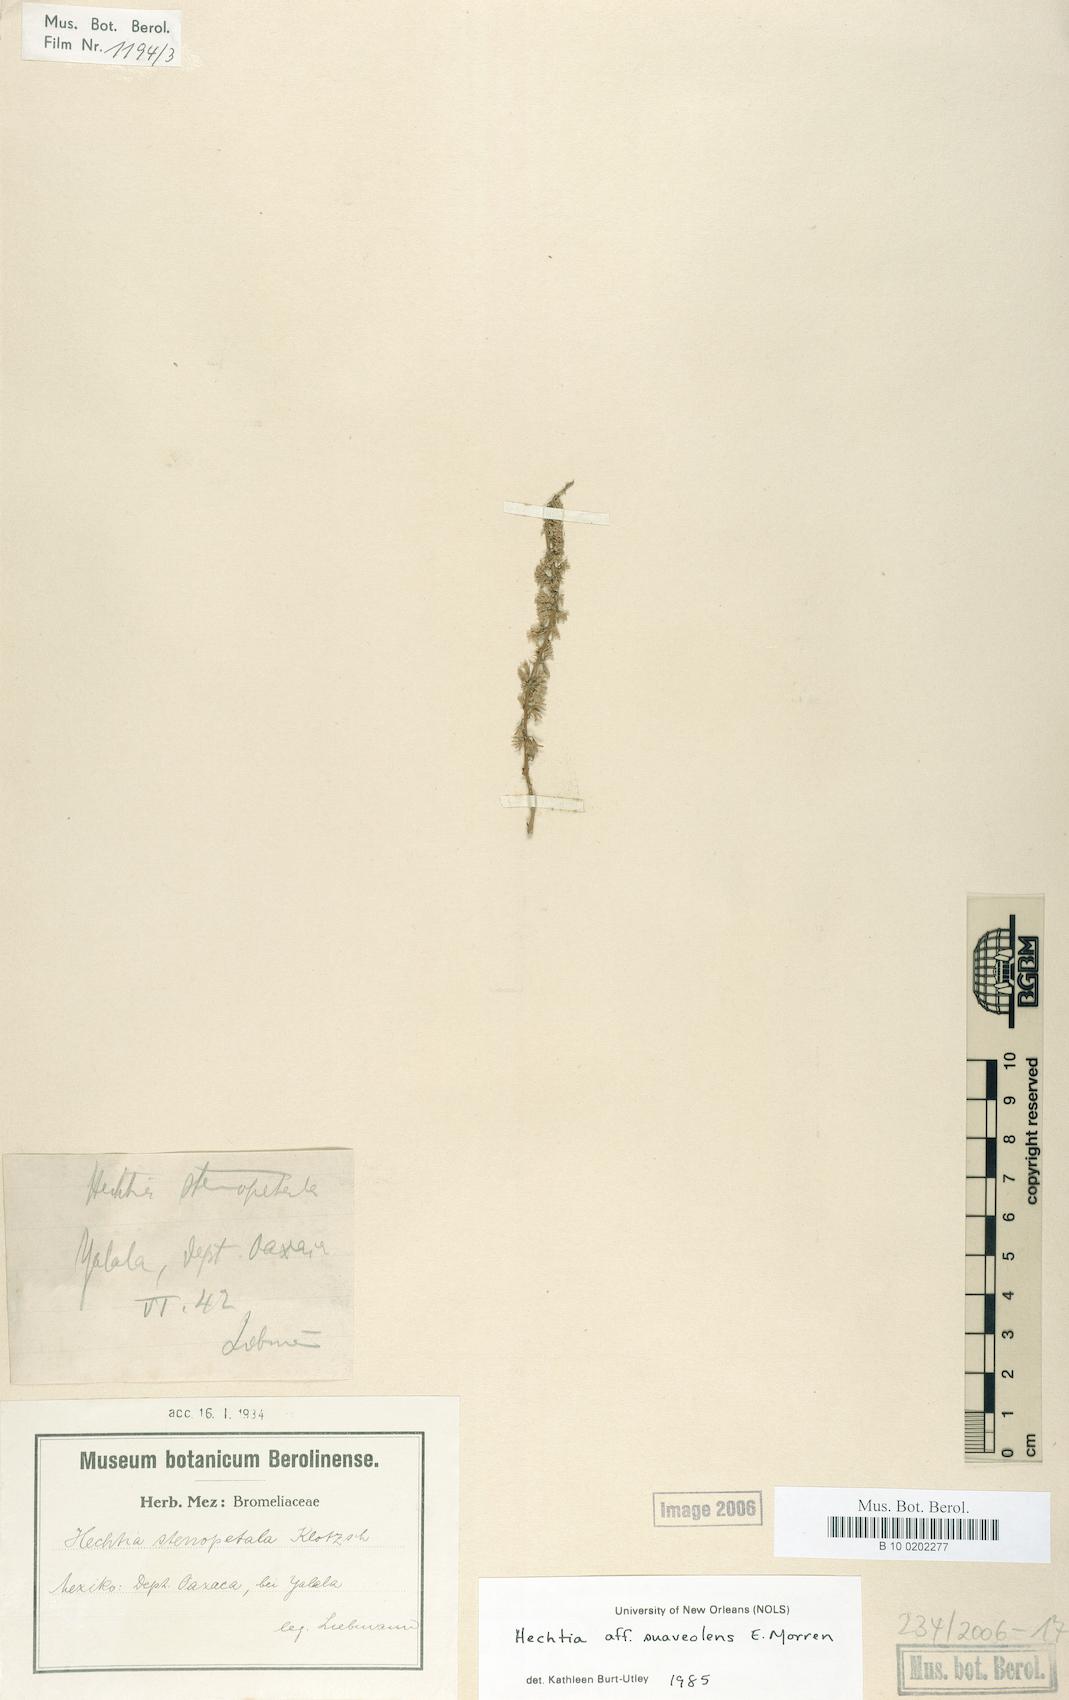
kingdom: Plantae
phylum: Tracheophyta
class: Liliopsida
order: Poales
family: Bromeliaceae
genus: Hechtia
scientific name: Hechtia suaveolens
